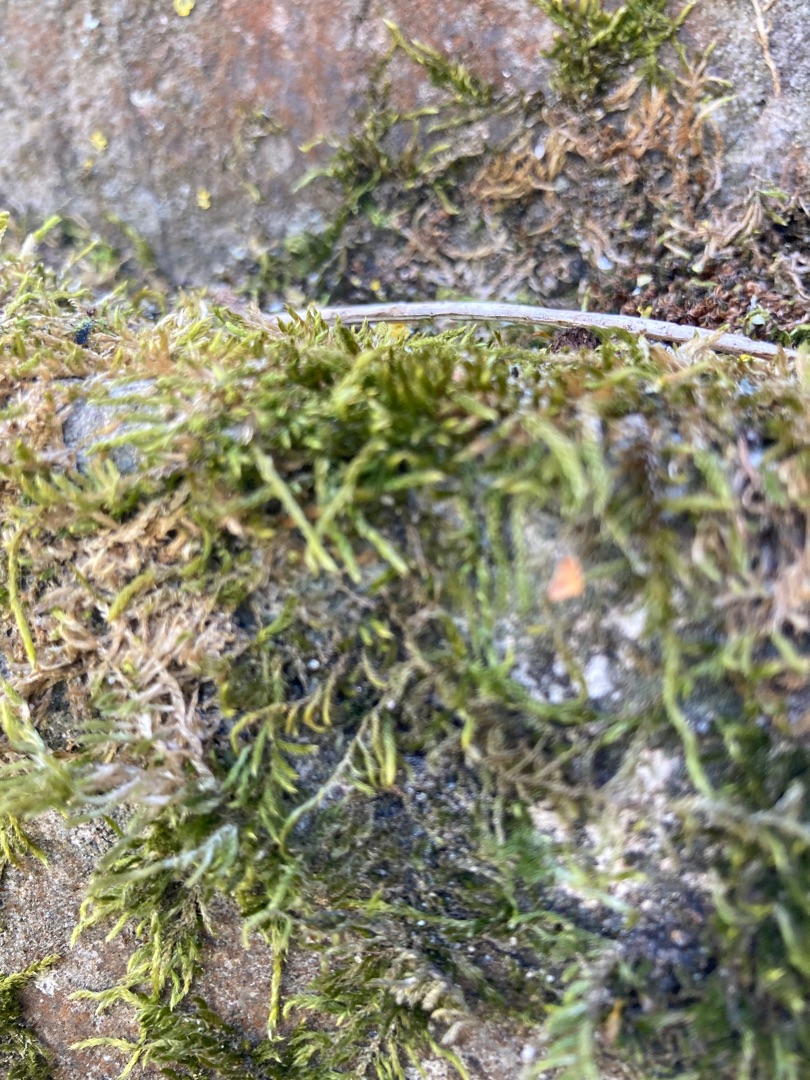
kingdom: Plantae
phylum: Bryophyta
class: Bryopsida
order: Hypnales
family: Hypnaceae
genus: Hypnum
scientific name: Hypnum cupressiforme
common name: Almindelig cypresmos
